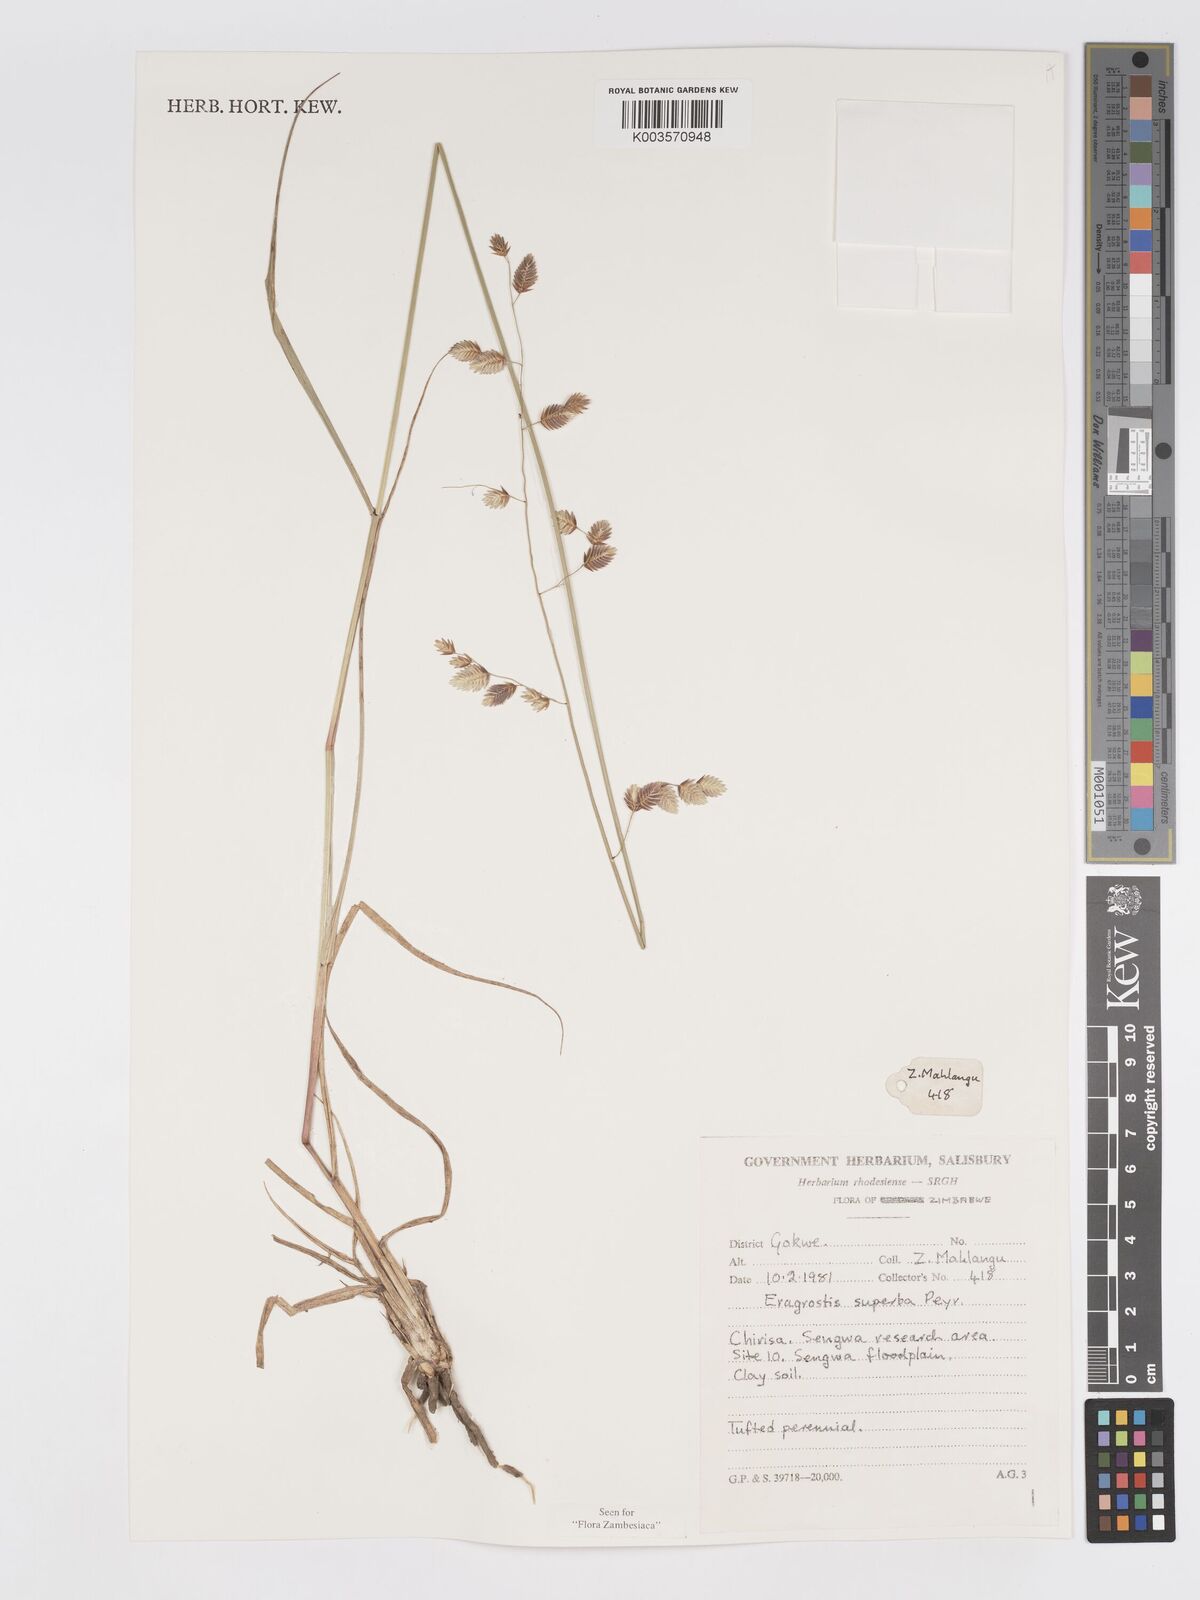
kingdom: Plantae
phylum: Tracheophyta
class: Liliopsida
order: Poales
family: Poaceae
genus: Eragrostis
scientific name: Eragrostis superba
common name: Wilman lovegrass
